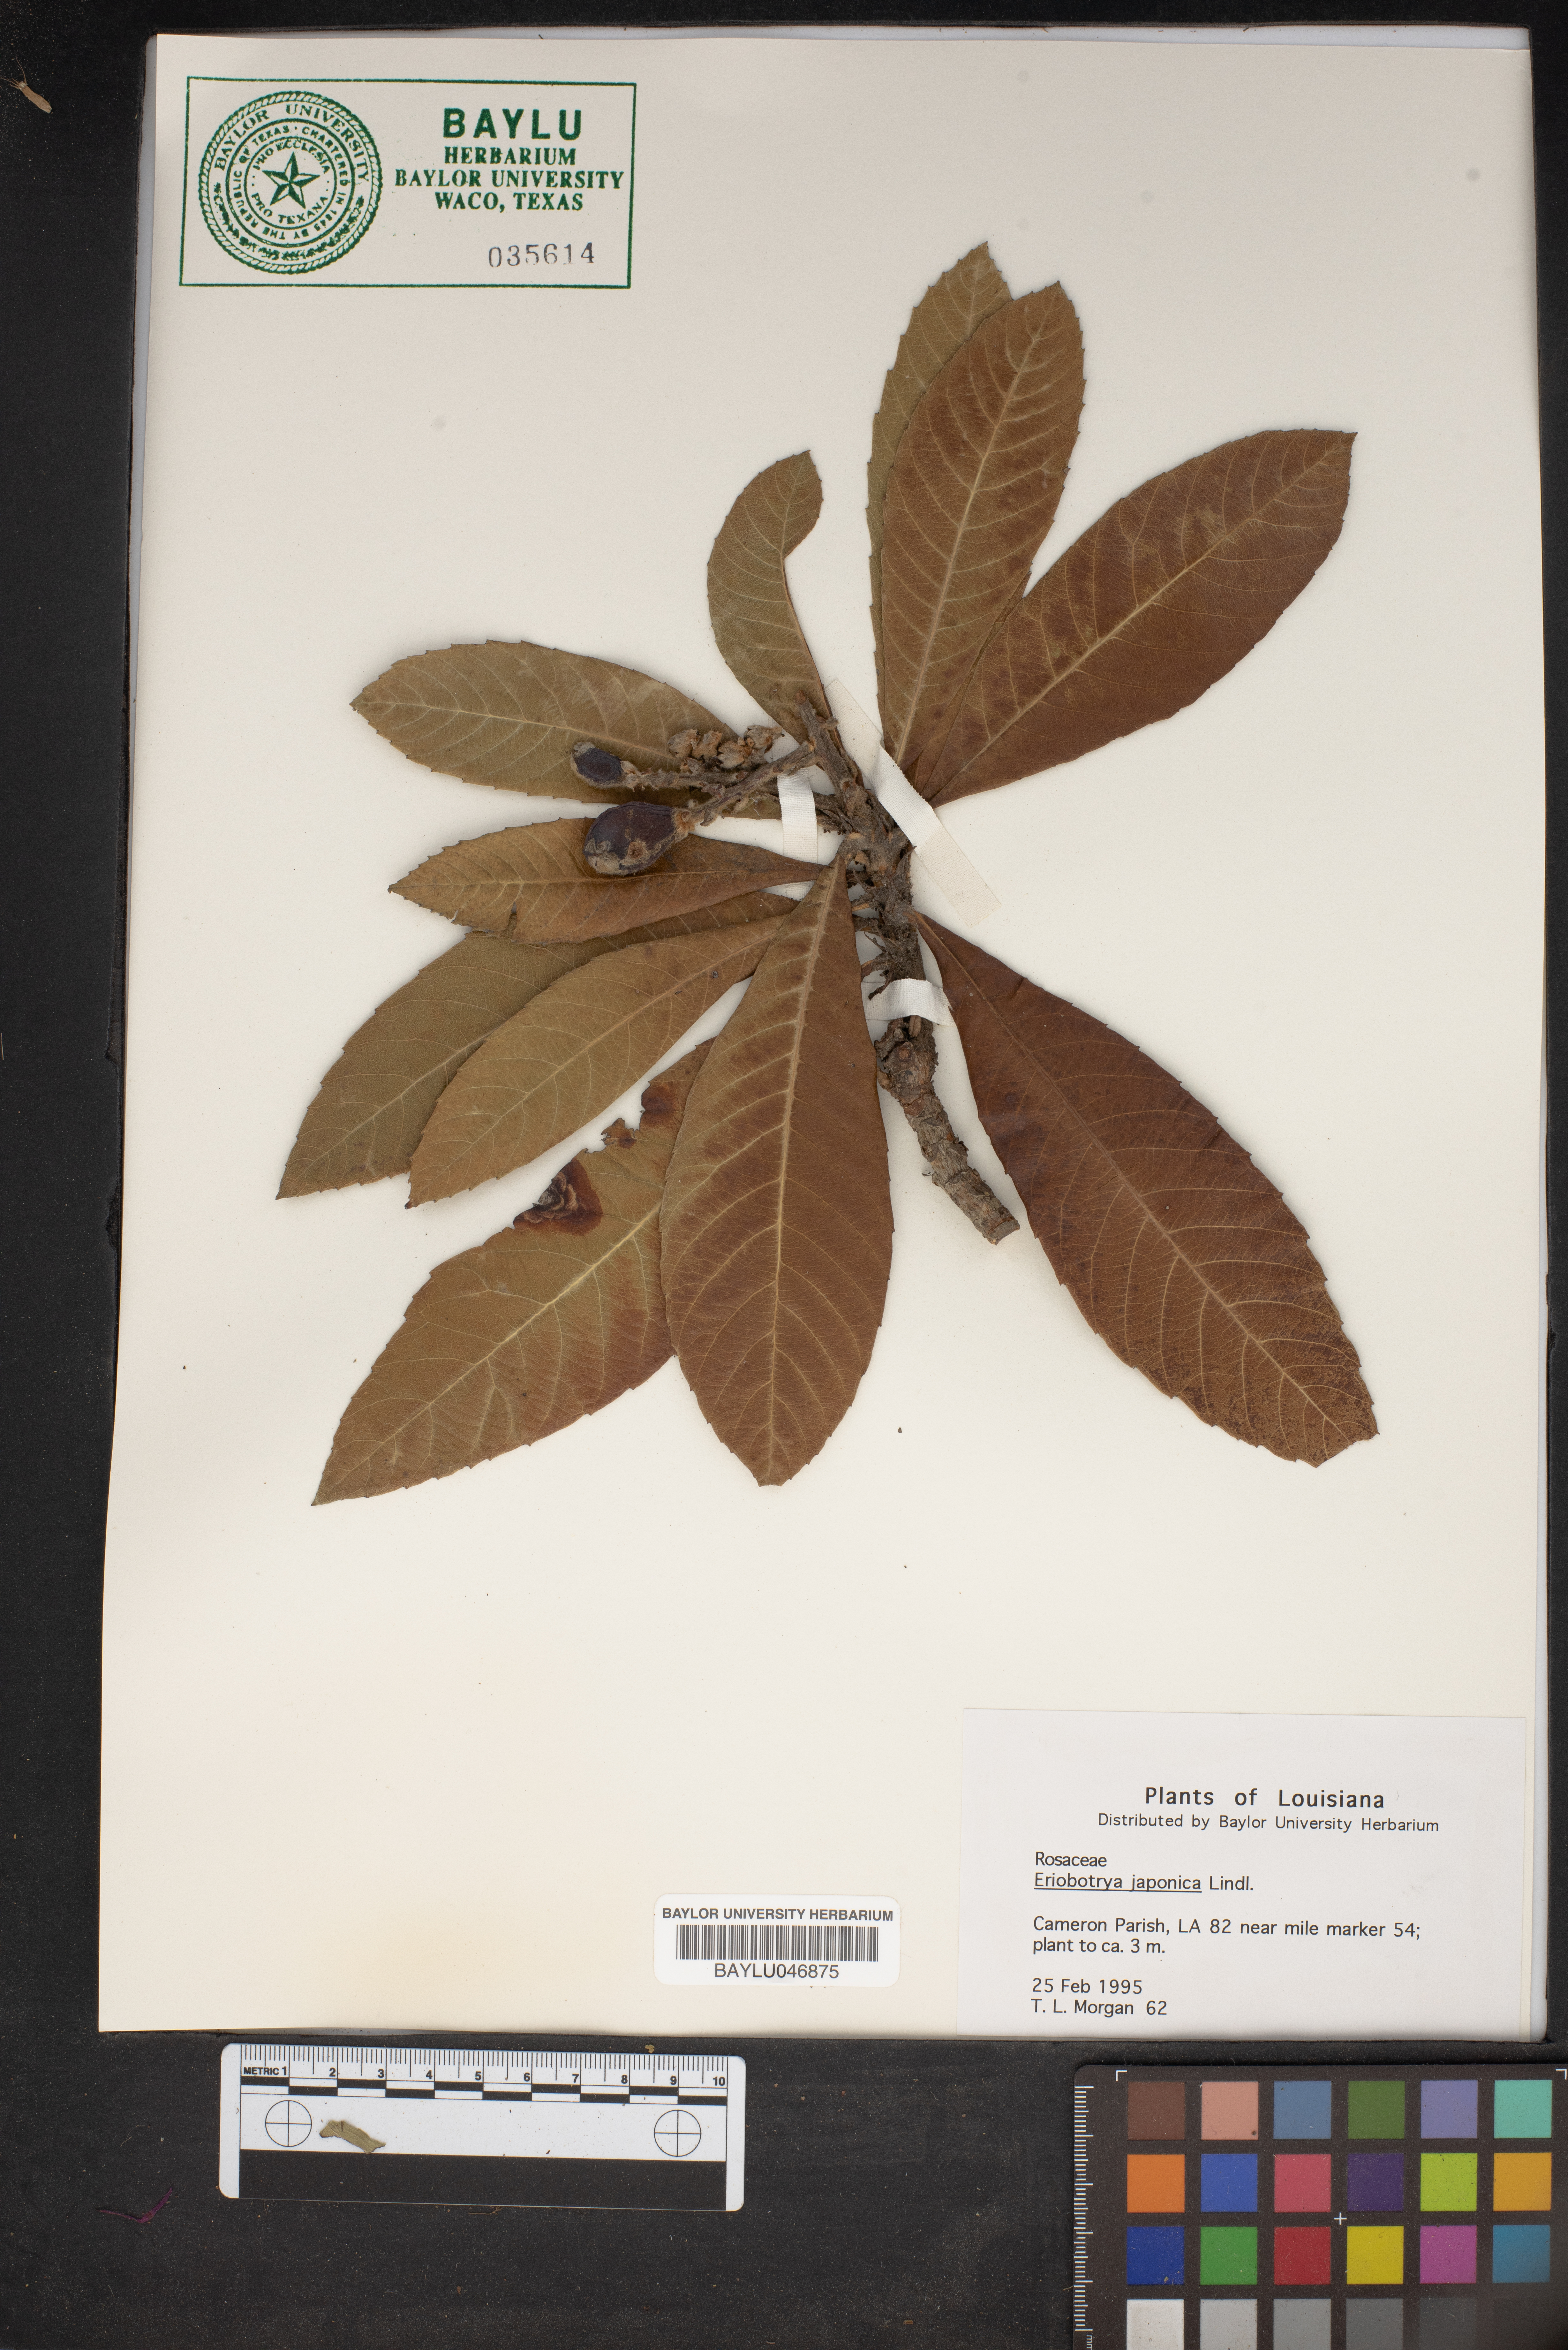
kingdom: Plantae
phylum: Tracheophyta
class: Magnoliopsida
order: Rosales
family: Rosaceae
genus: Rhaphiolepis
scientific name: Rhaphiolepis bibas
